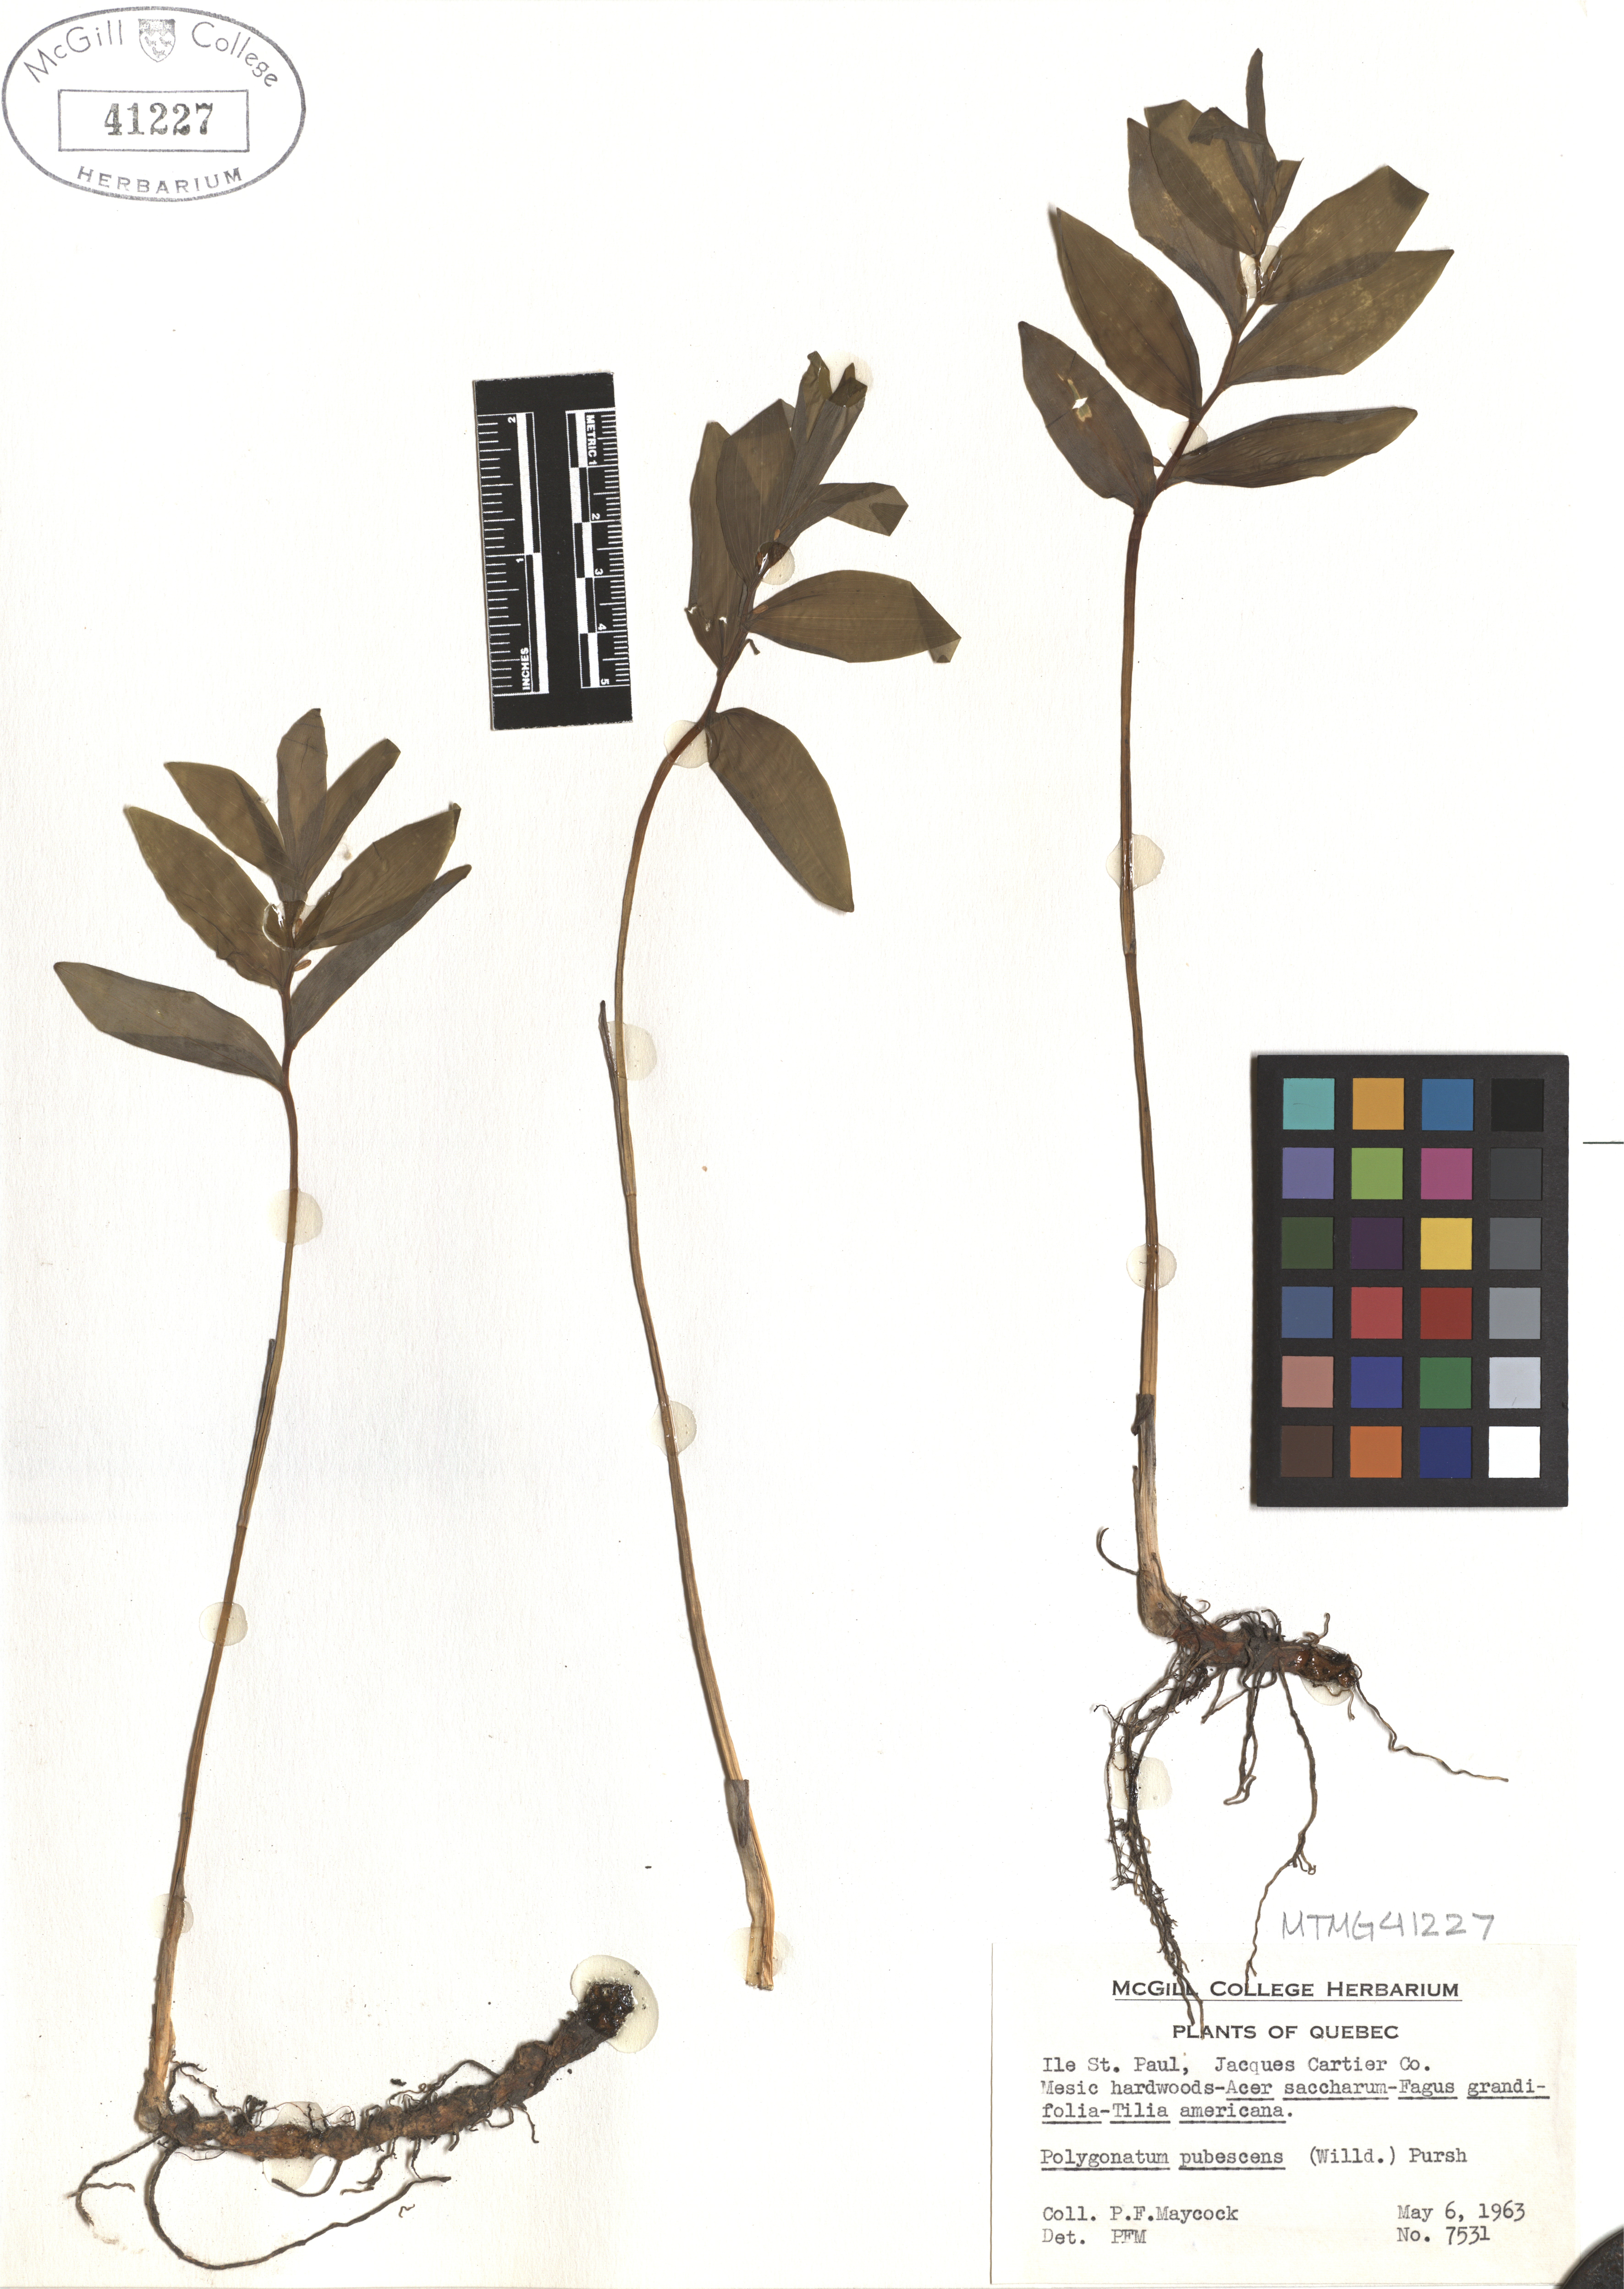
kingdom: Plantae
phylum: Tracheophyta
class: Liliopsida
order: Asparagales
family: Asparagaceae
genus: Polygonatum
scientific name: Polygonatum pubescens
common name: Downy solomon's seal
